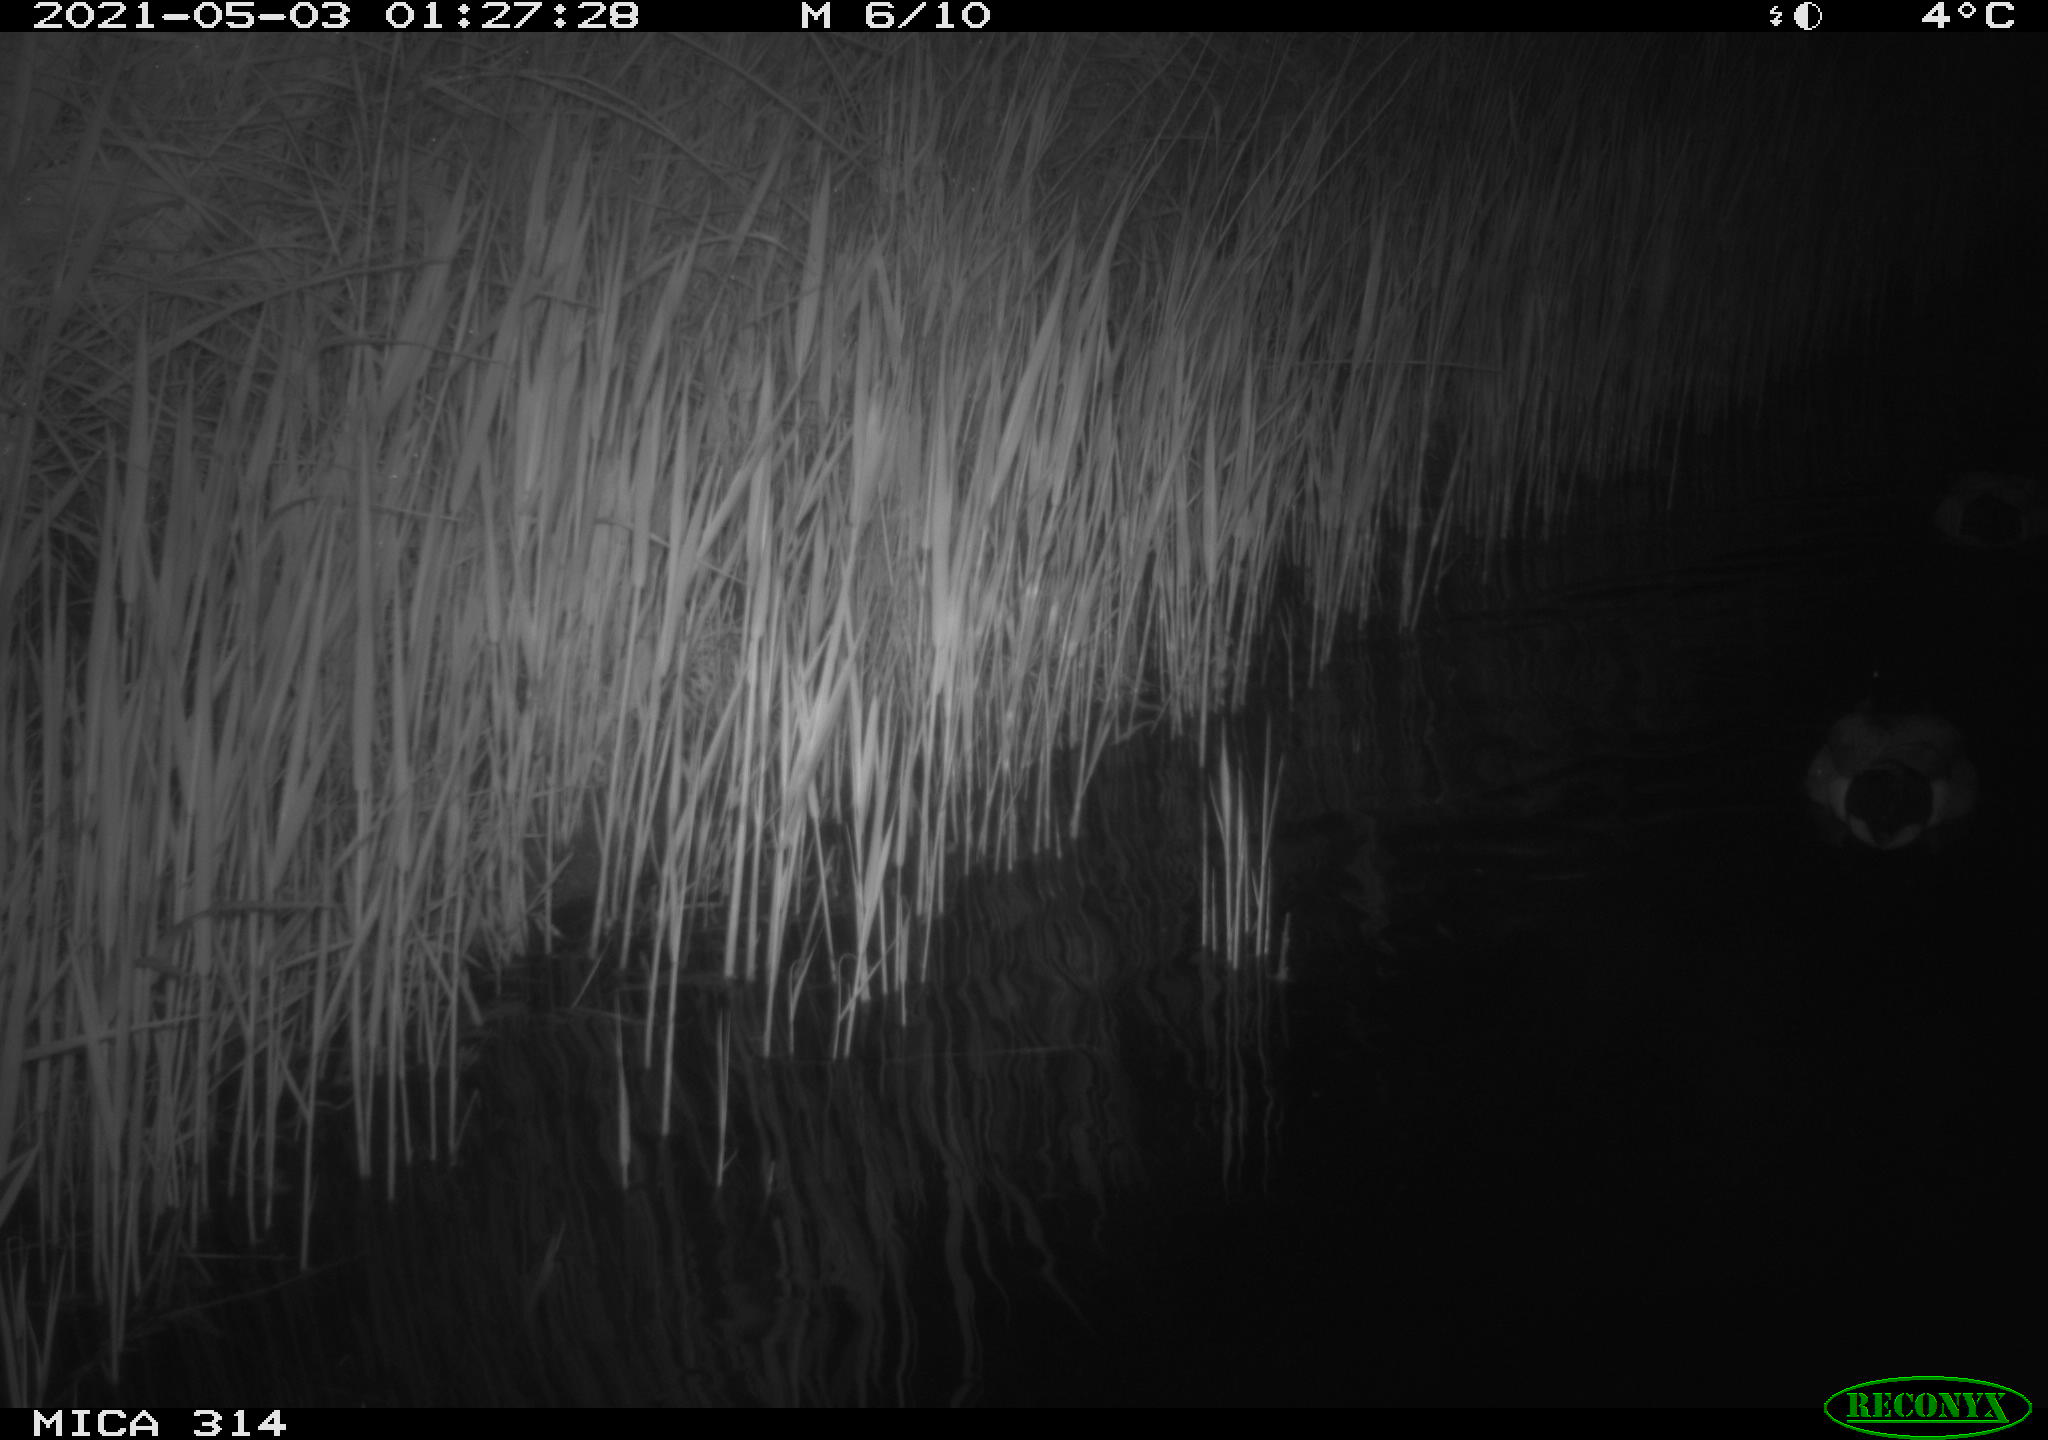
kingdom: Animalia
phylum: Chordata
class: Aves
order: Anseriformes
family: Anatidae
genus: Anas
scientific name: Anas platyrhynchos
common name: Mallard
